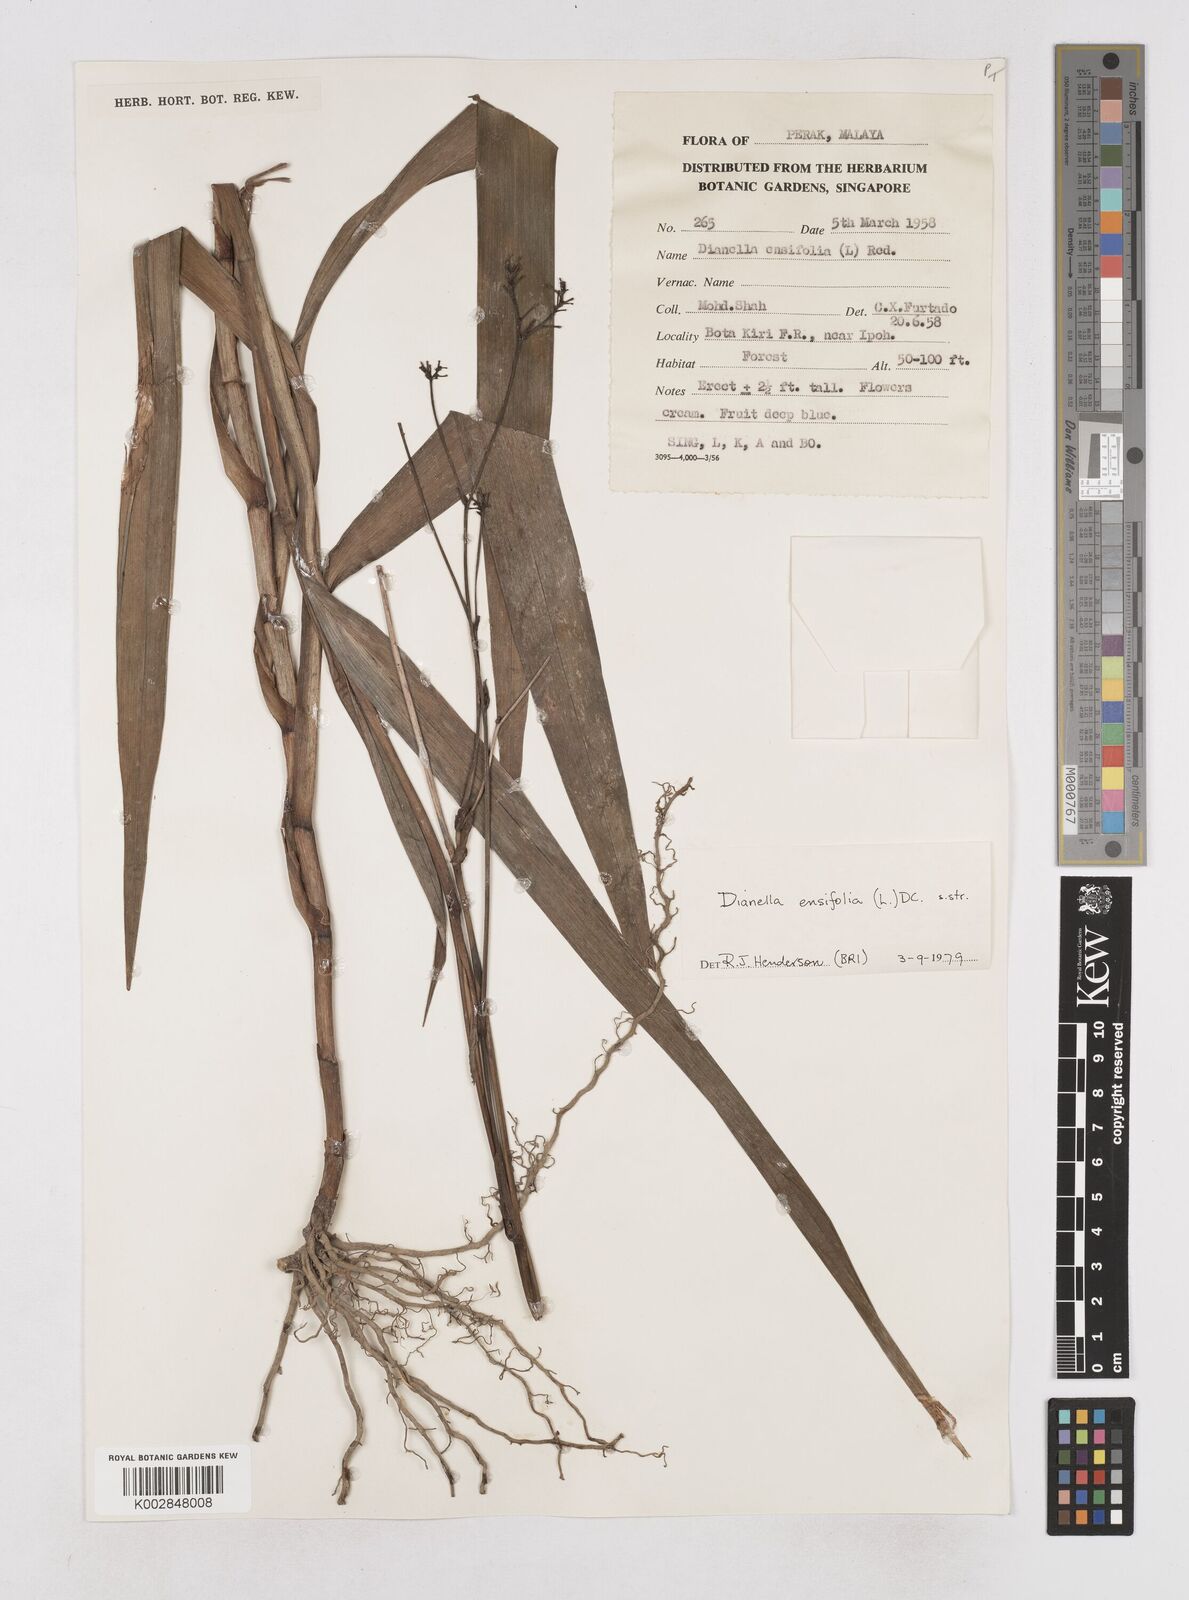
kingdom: Plantae
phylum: Tracheophyta
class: Liliopsida
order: Asparagales
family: Asphodelaceae
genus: Dianella
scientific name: Dianella ensifolia
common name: New zealand lilyplant
